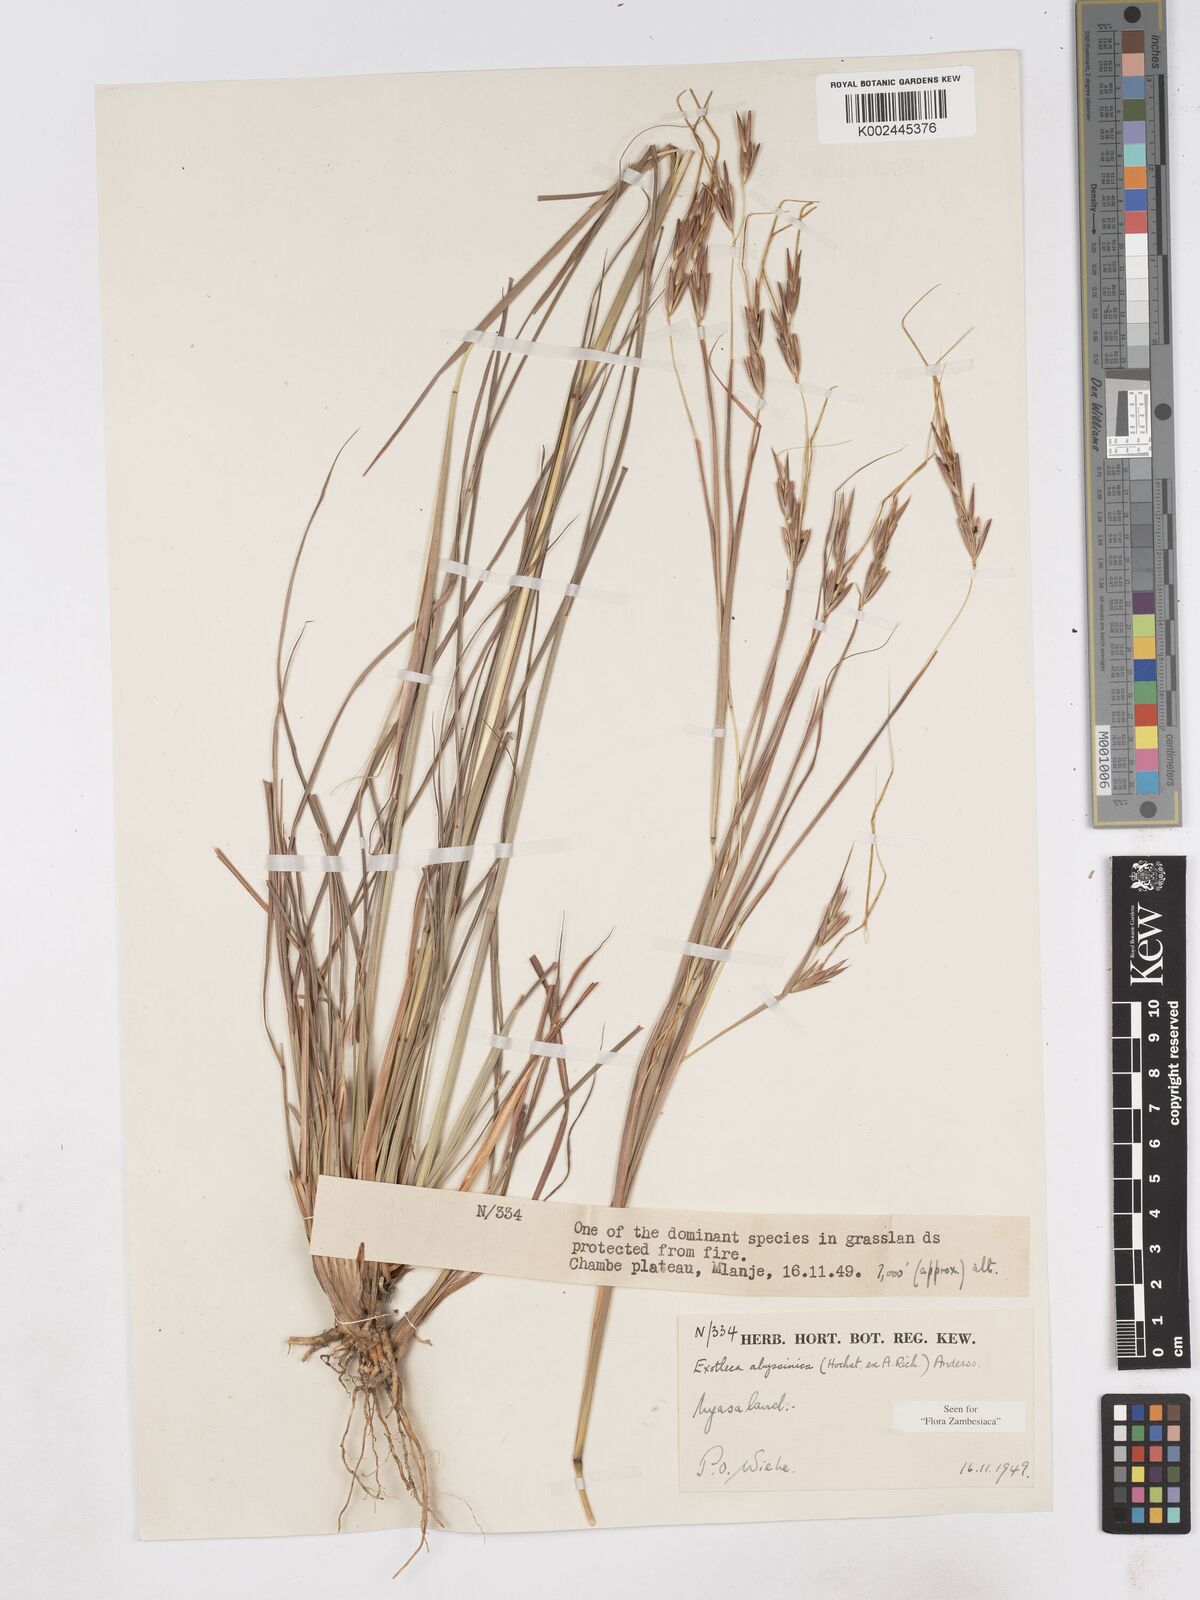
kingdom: Plantae
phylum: Tracheophyta
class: Liliopsida
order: Poales
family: Poaceae
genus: Exotheca
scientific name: Exotheca abyssinica
